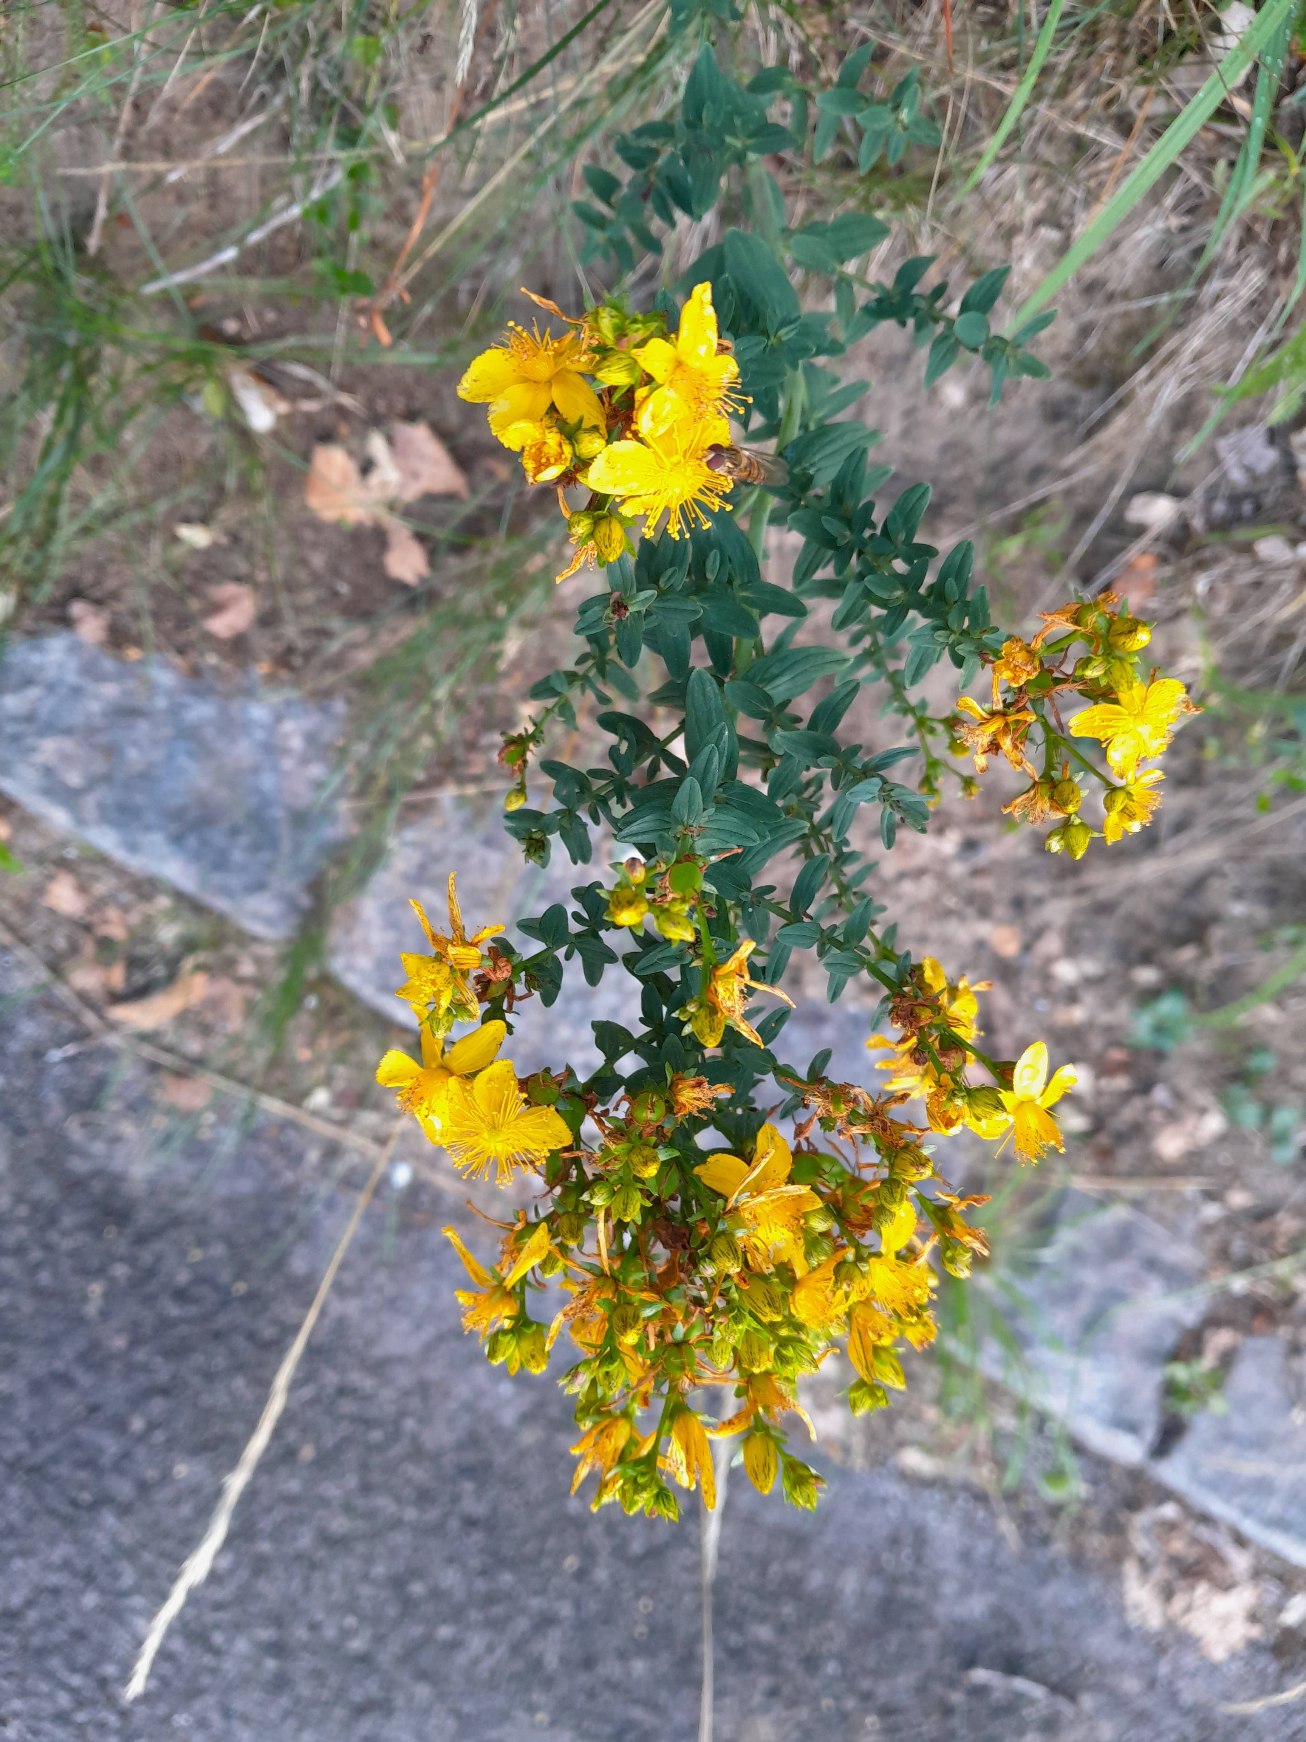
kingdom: Plantae
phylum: Tracheophyta
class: Magnoliopsida
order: Malpighiales
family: Hypericaceae
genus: Hypericum
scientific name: Hypericum perforatum
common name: Prikbladet perikon
